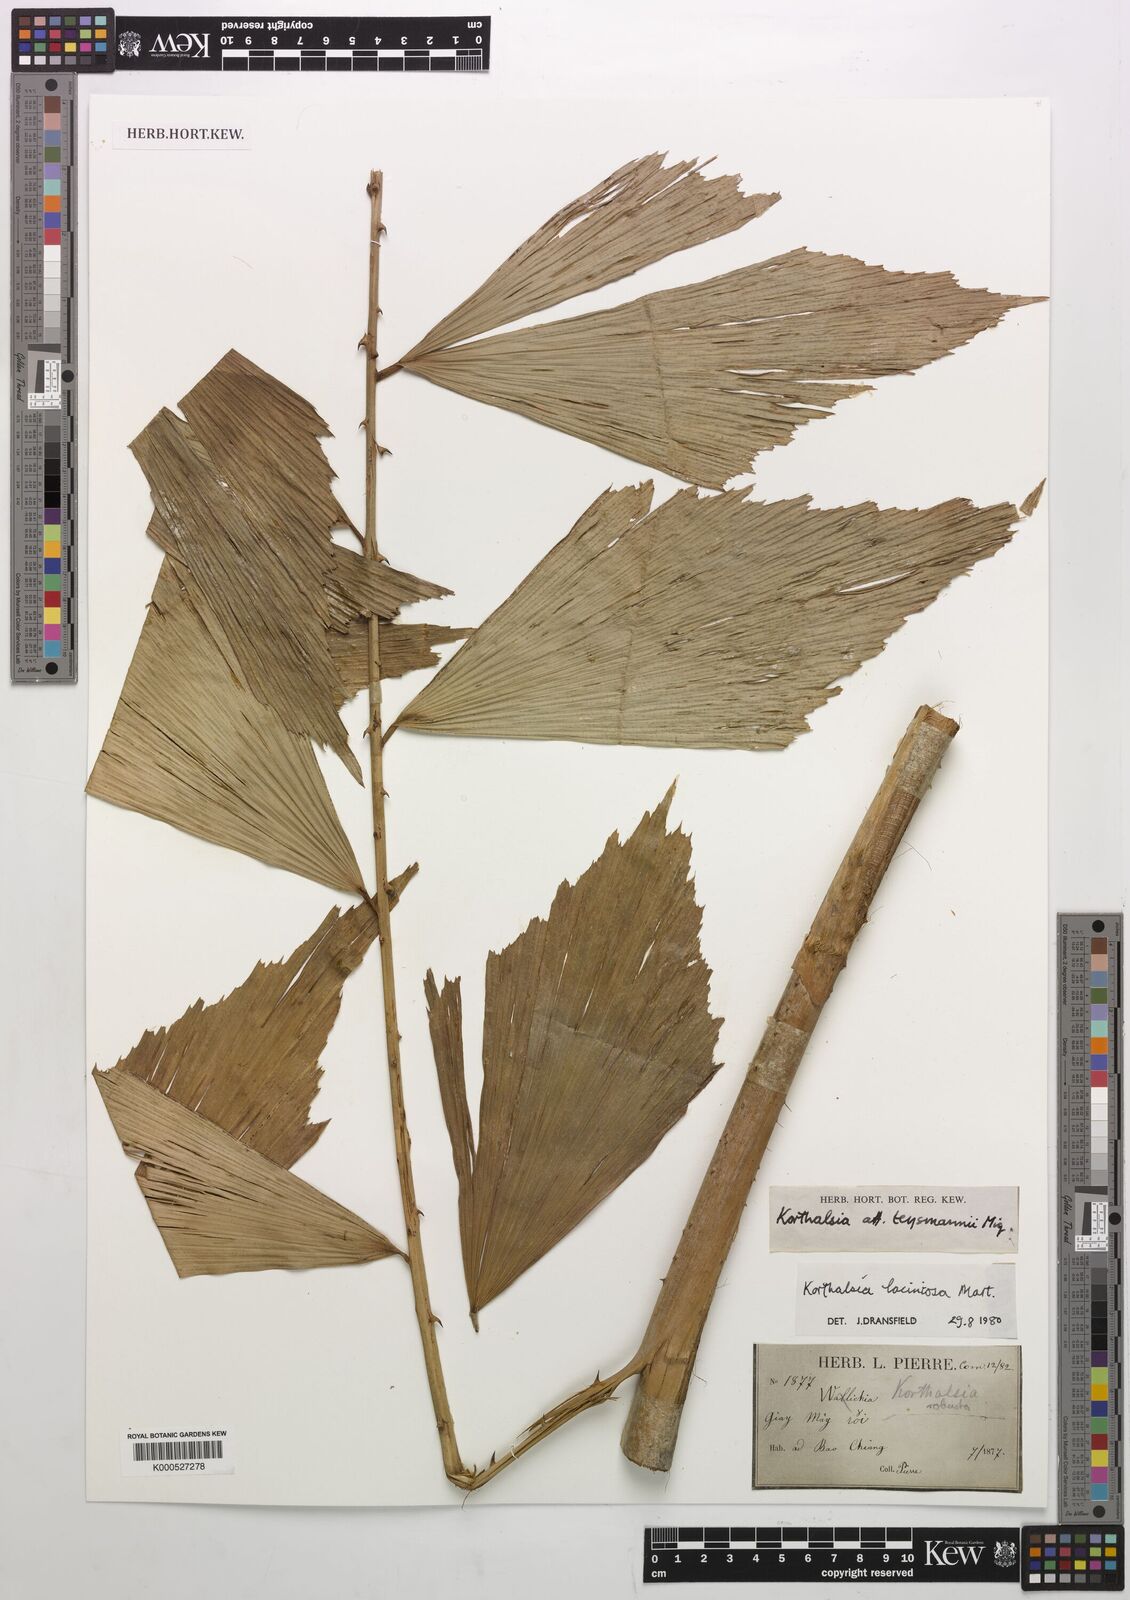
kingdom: Plantae
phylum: Tracheophyta
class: Liliopsida
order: Arecales
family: Arecaceae
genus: Korthalsia
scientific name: Korthalsia laciniosa
